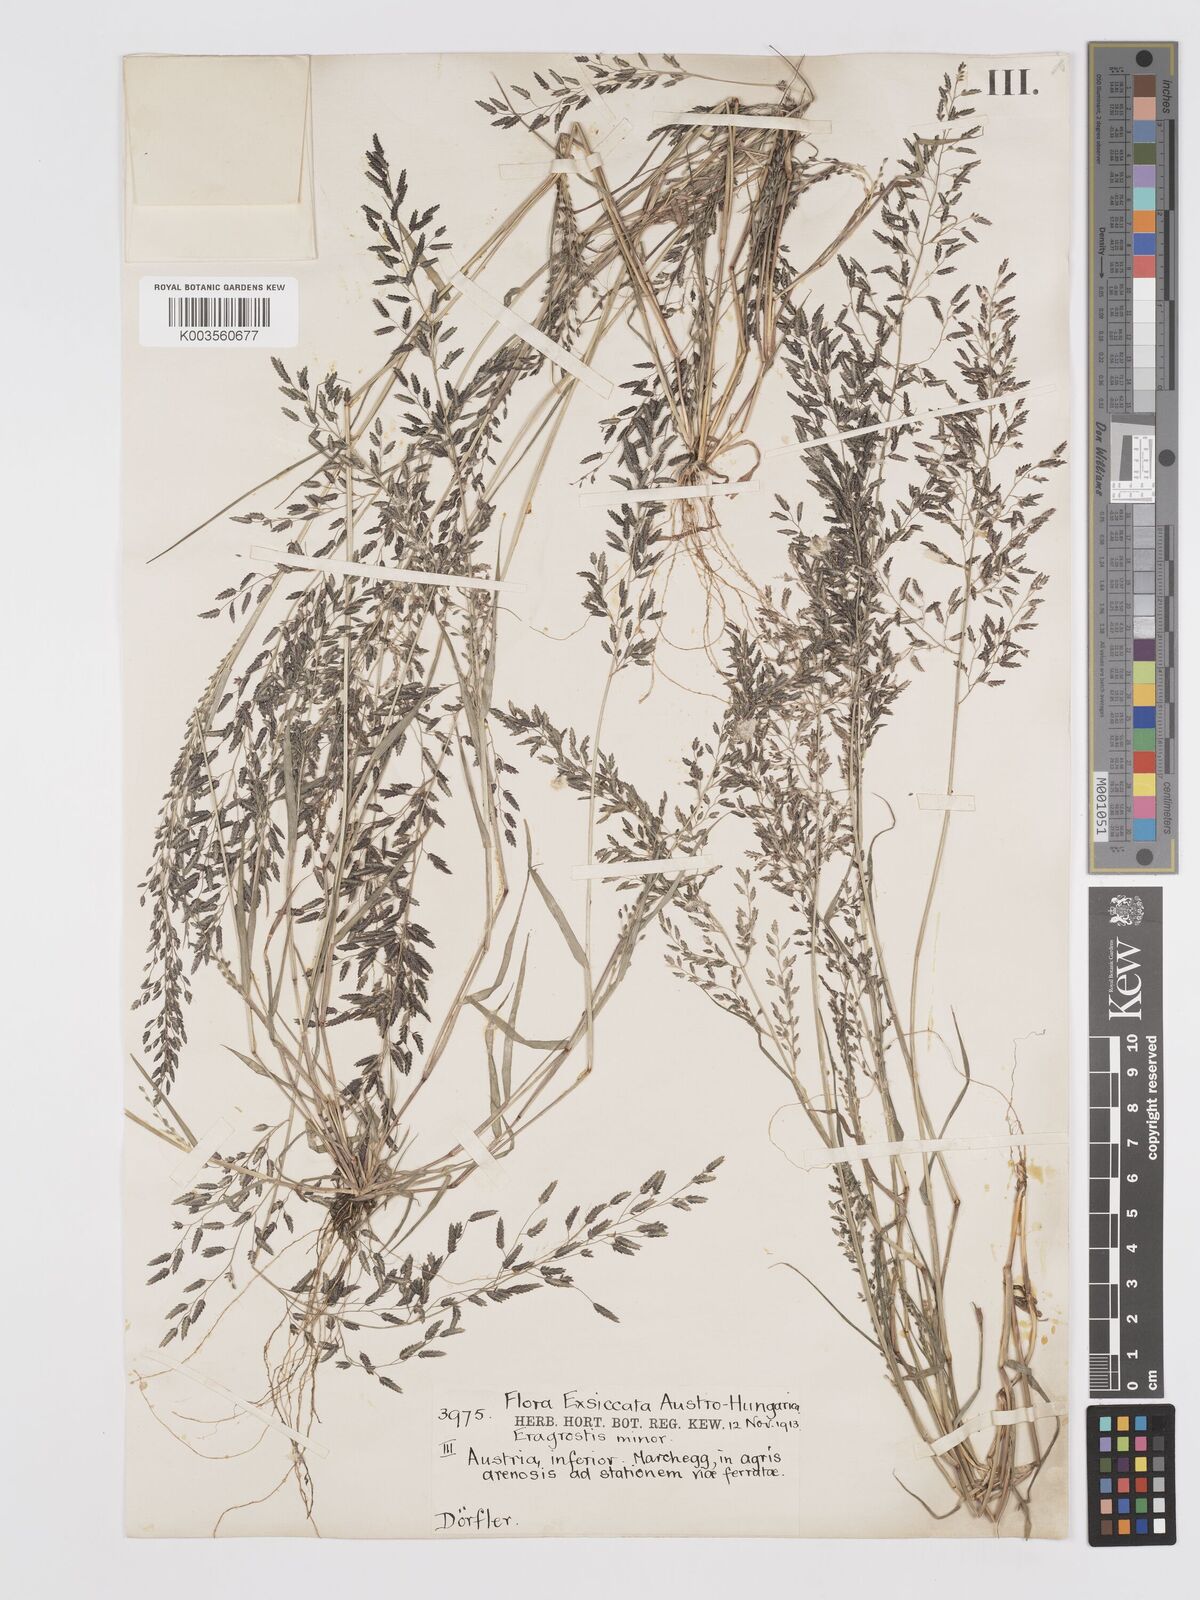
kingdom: Plantae
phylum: Tracheophyta
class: Liliopsida
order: Poales
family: Poaceae
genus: Eragrostis
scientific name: Eragrostis minor
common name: Small love-grass
